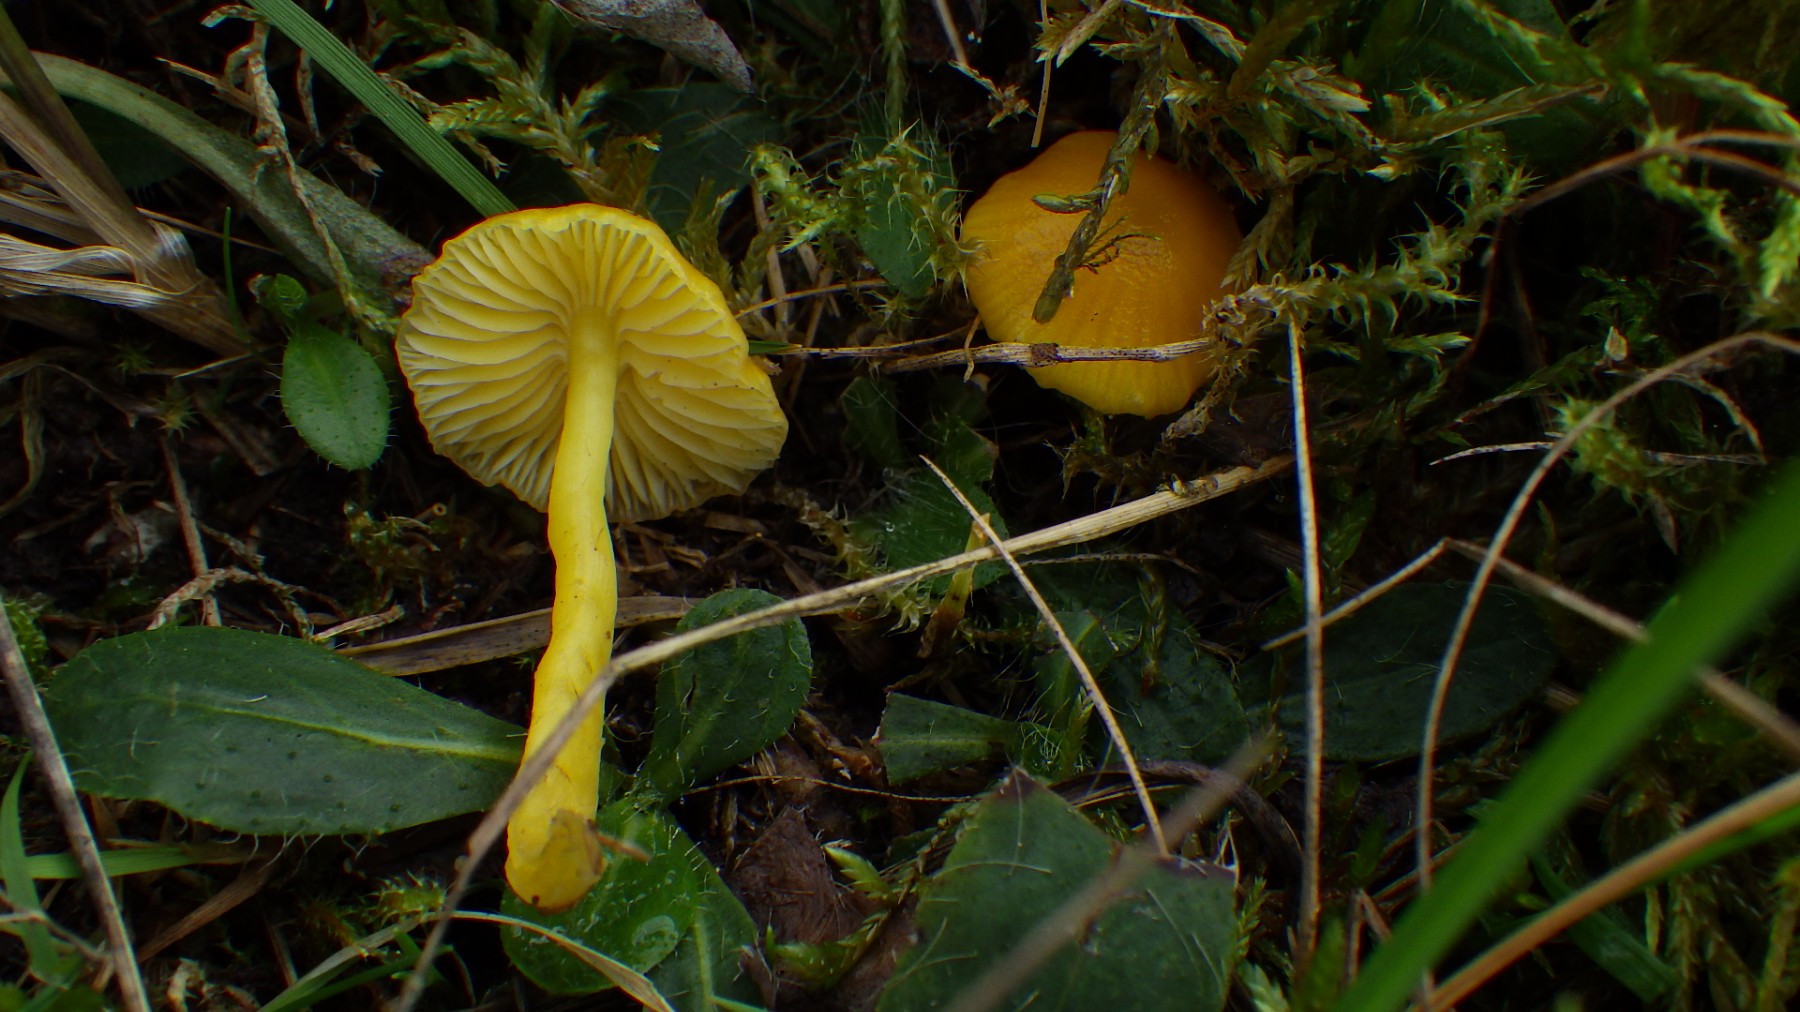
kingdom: Fungi
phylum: Basidiomycota
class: Agaricomycetes
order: Agaricales
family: Hygrophoraceae
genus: Hygrocybe
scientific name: Hygrocybe chlorophana
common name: gul vokshat
